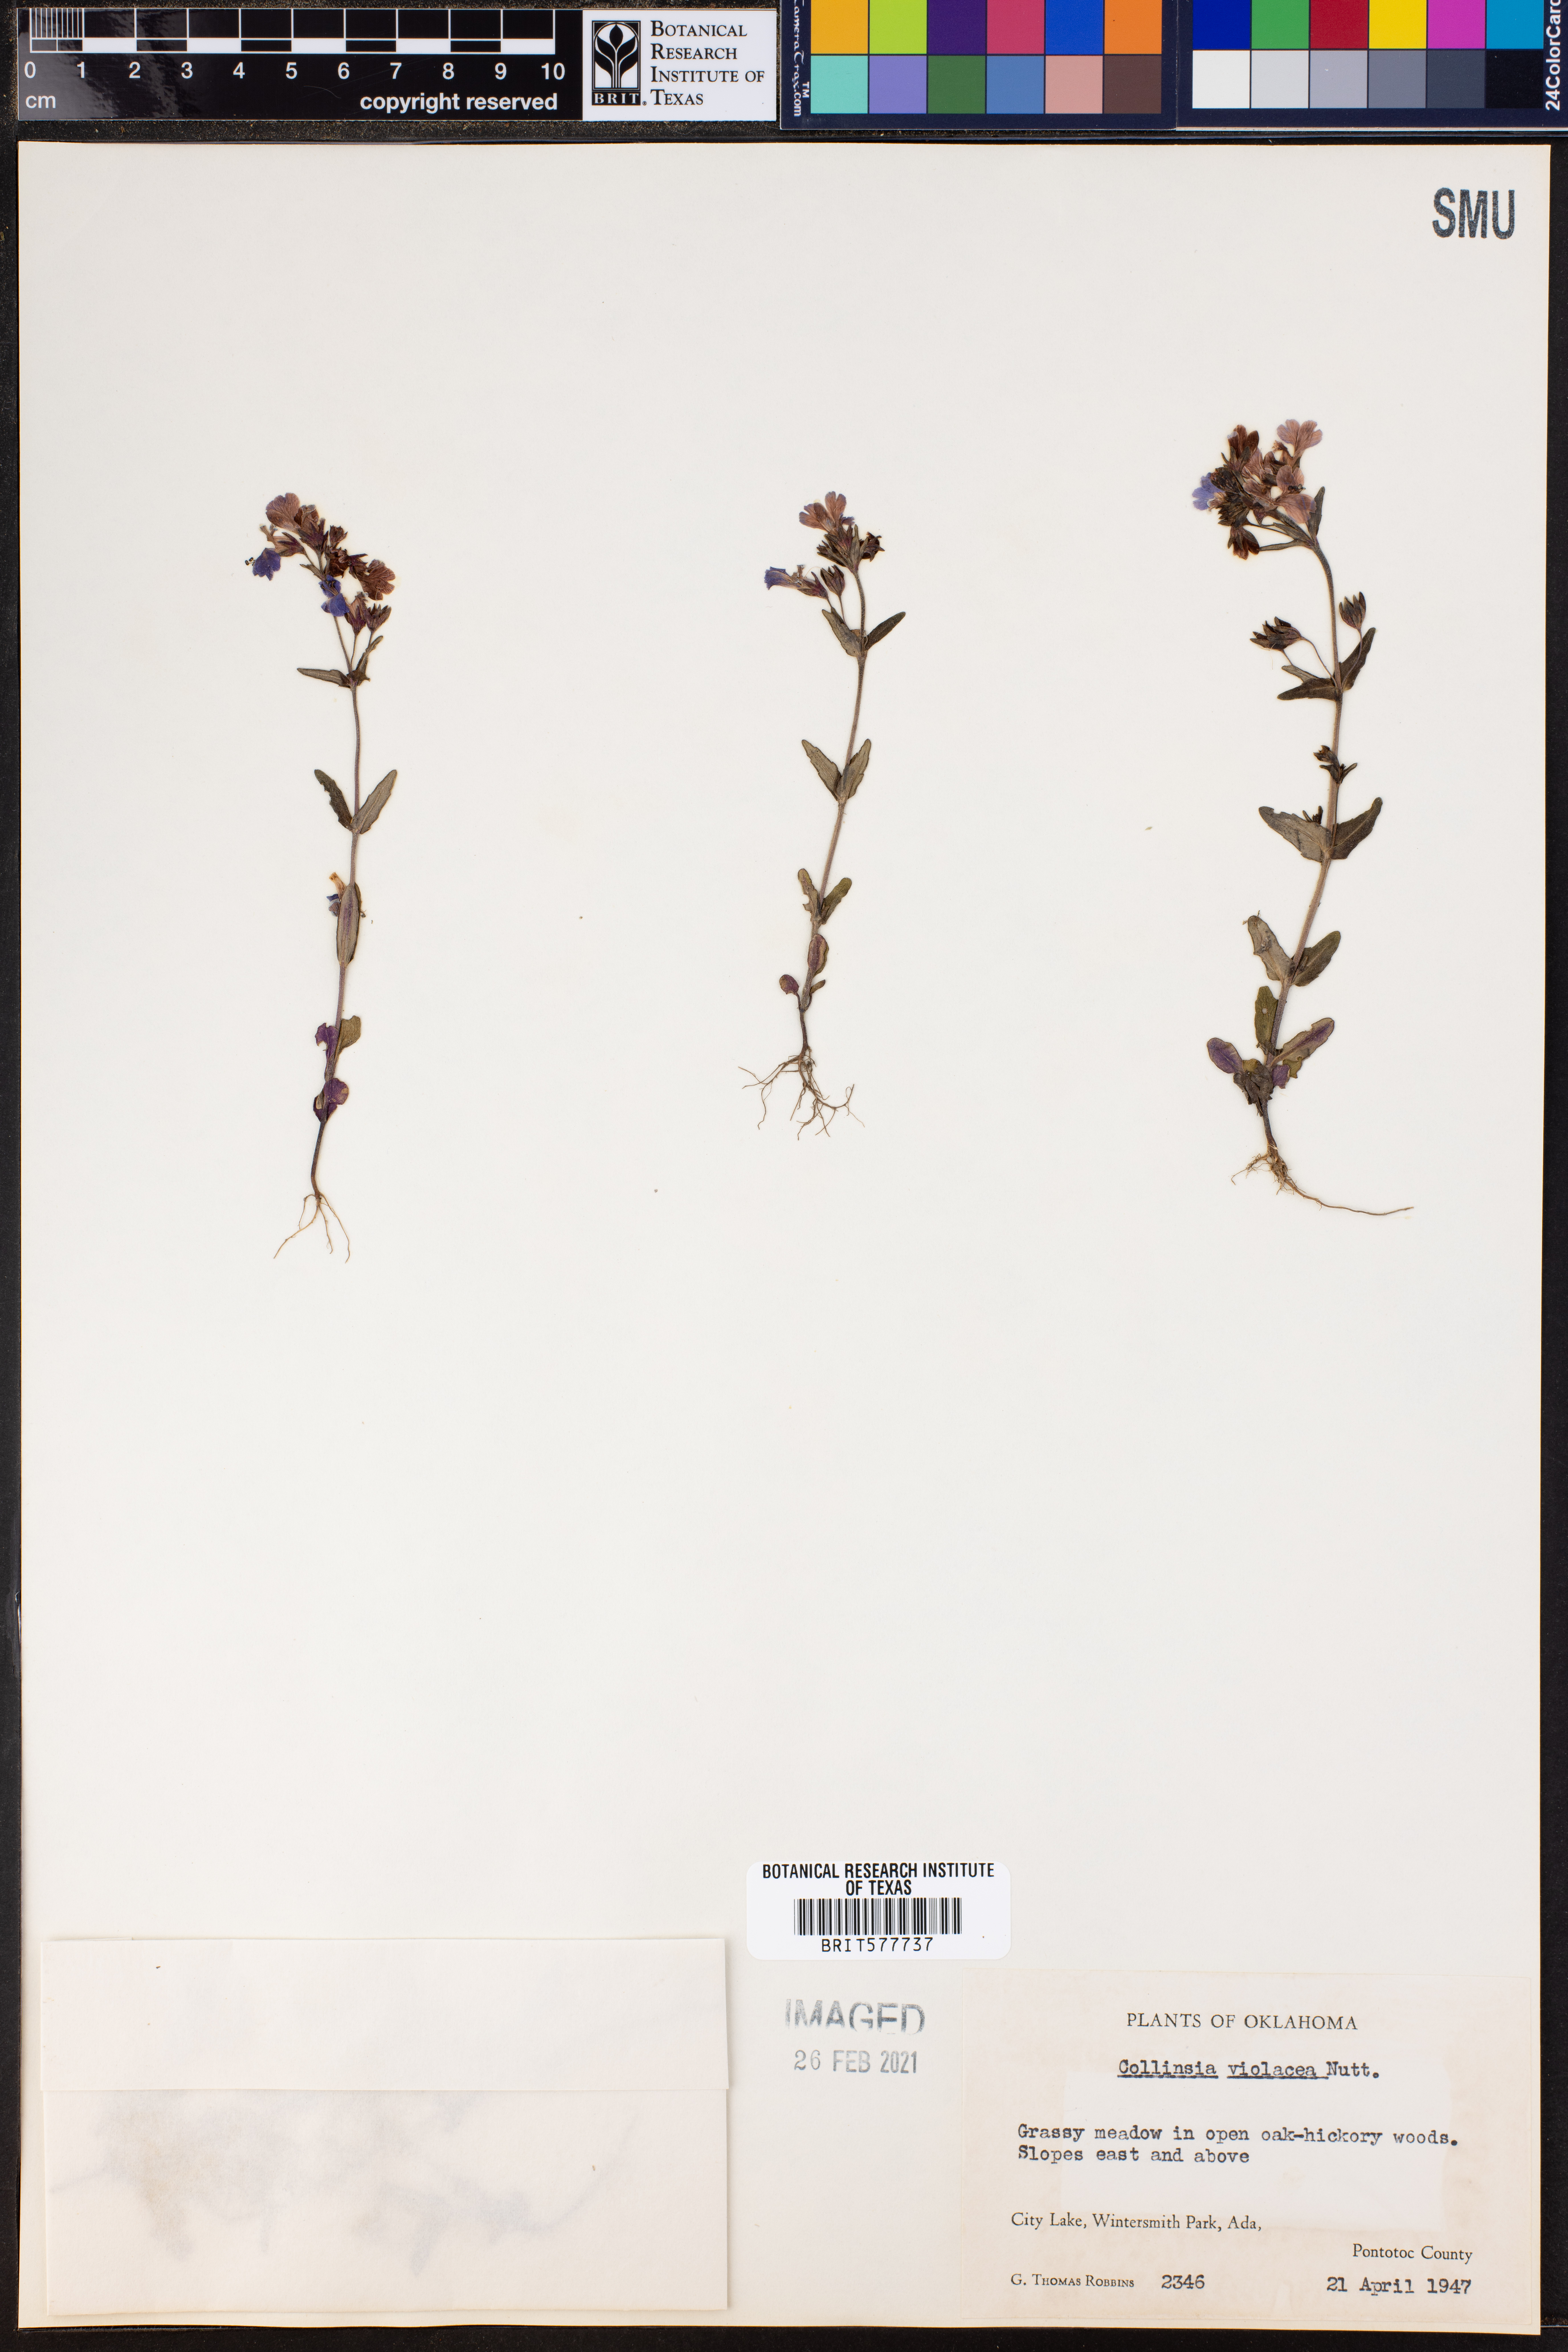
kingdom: Plantae
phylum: Tracheophyta
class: Magnoliopsida
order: Lamiales
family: Plantaginaceae
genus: Collinsia
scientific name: Collinsia violacea
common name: Violet collinsia
